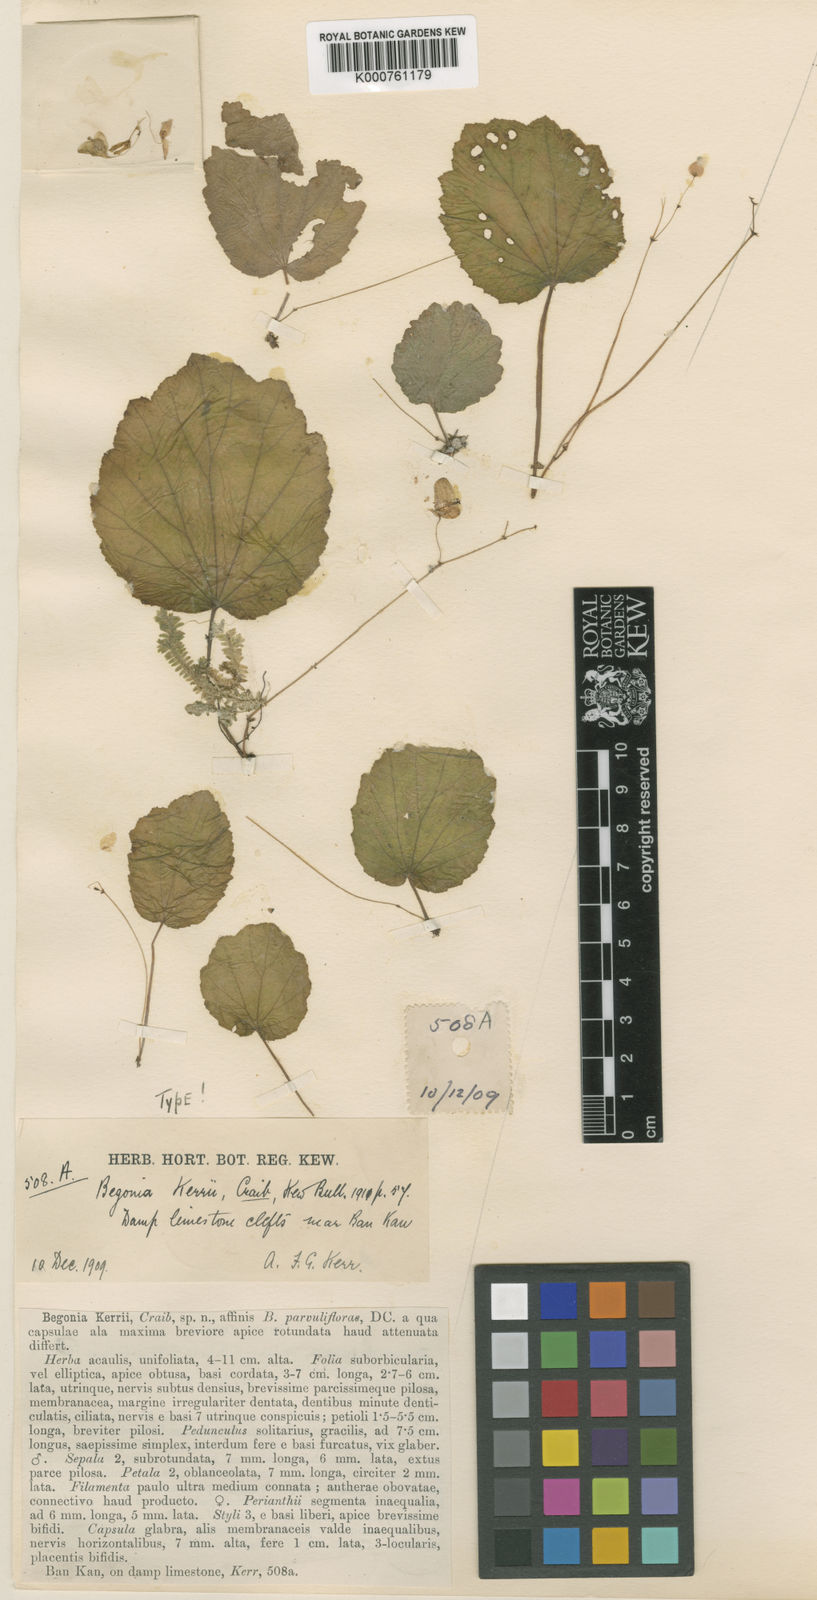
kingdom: Plantae
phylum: Tracheophyta
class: Magnoliopsida
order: Cucurbitales
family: Begoniaceae
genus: Begonia
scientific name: Begonia incerta
